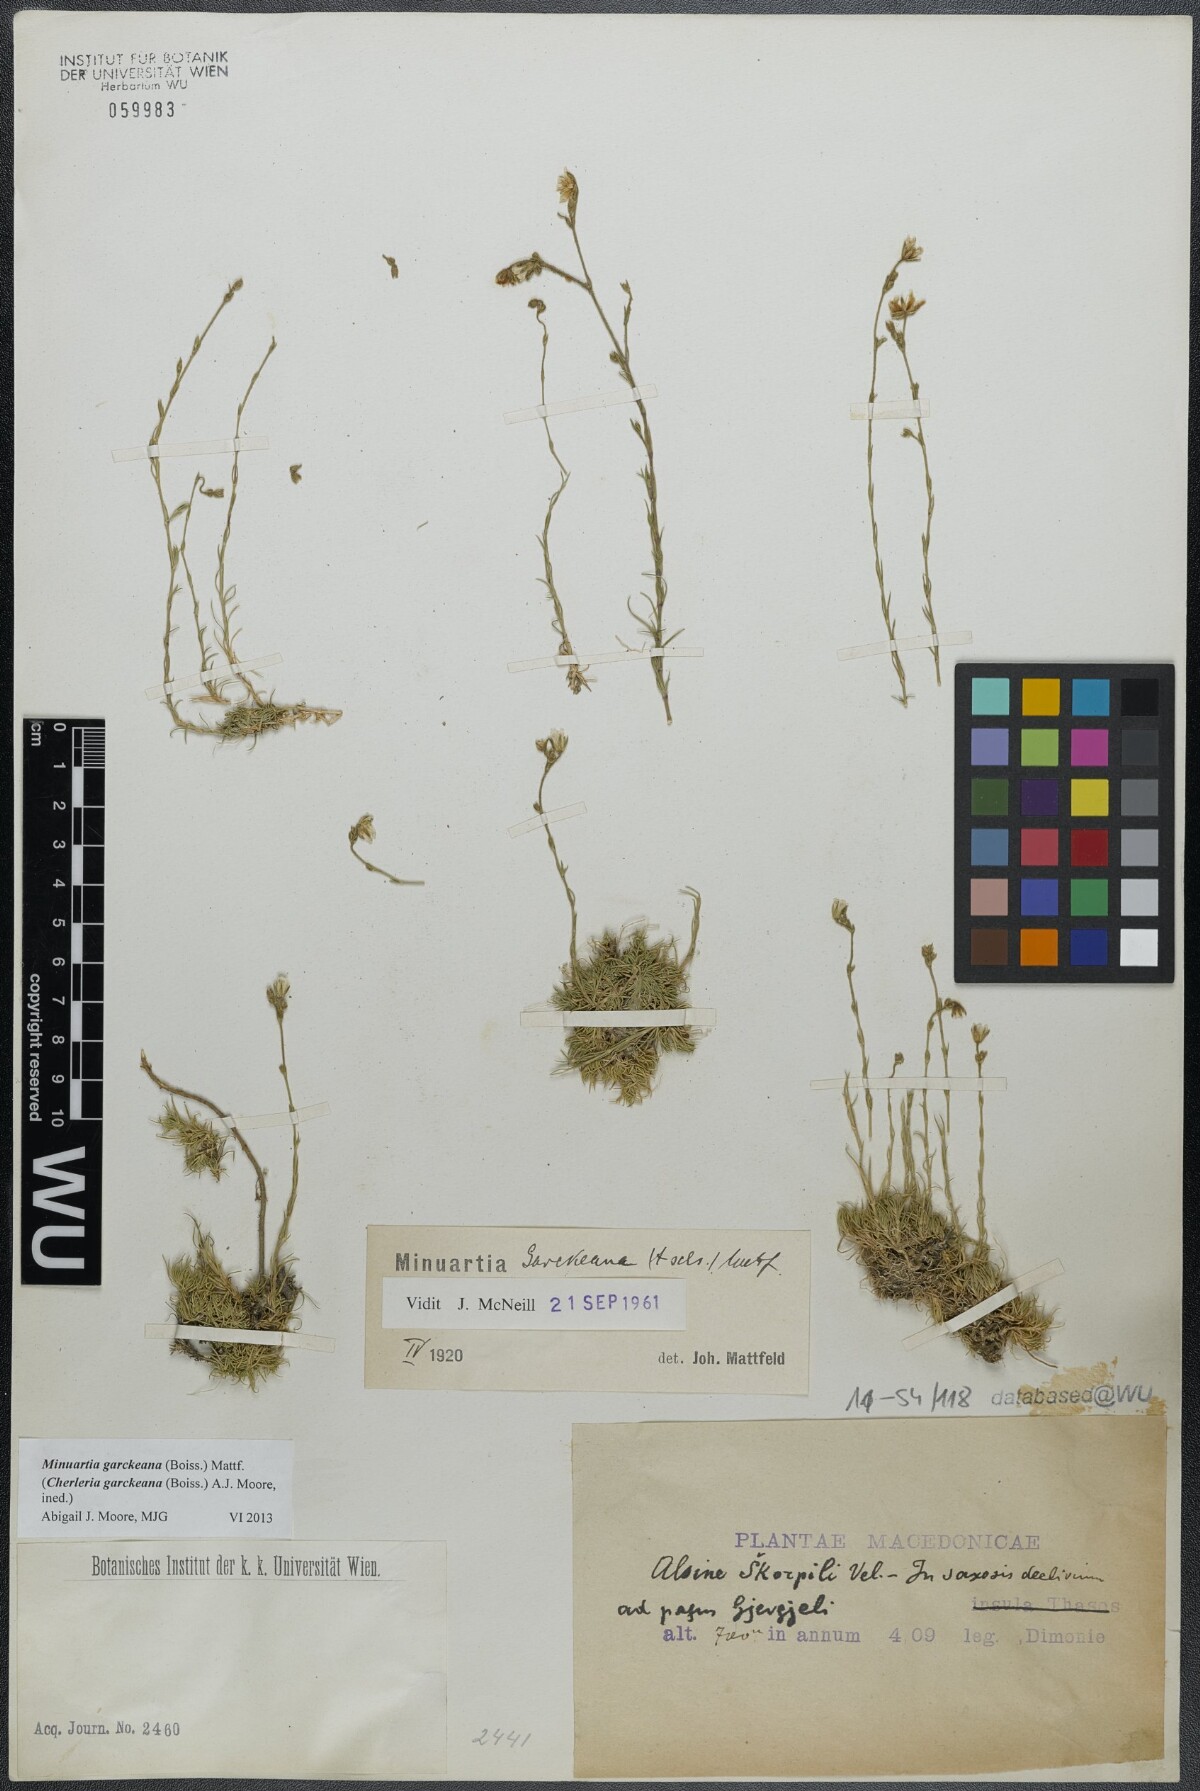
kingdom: Plantae
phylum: Tracheophyta
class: Magnoliopsida
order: Caryophyllales
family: Caryophyllaceae
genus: Cherleria
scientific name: Cherleria garckeana
